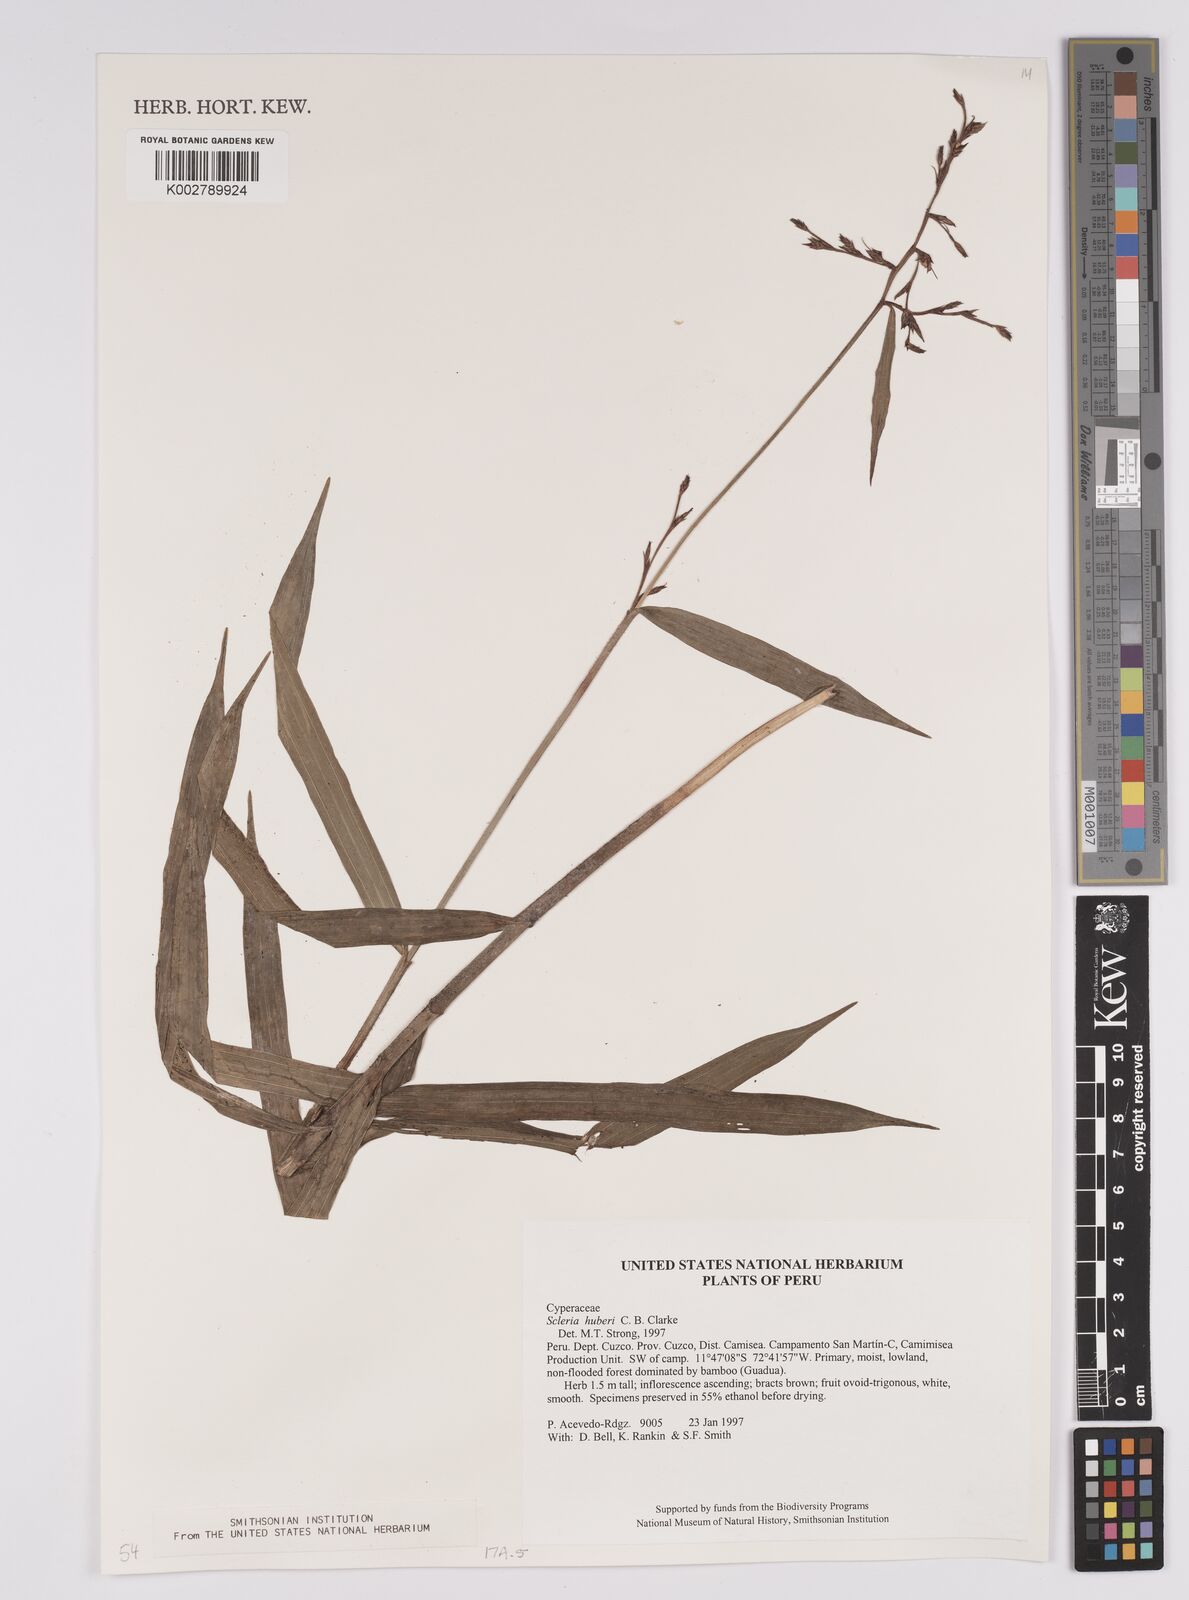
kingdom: Plantae
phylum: Tracheophyta
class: Liliopsida
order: Poales
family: Cyperaceae
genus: Scleria
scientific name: Scleria huberi
